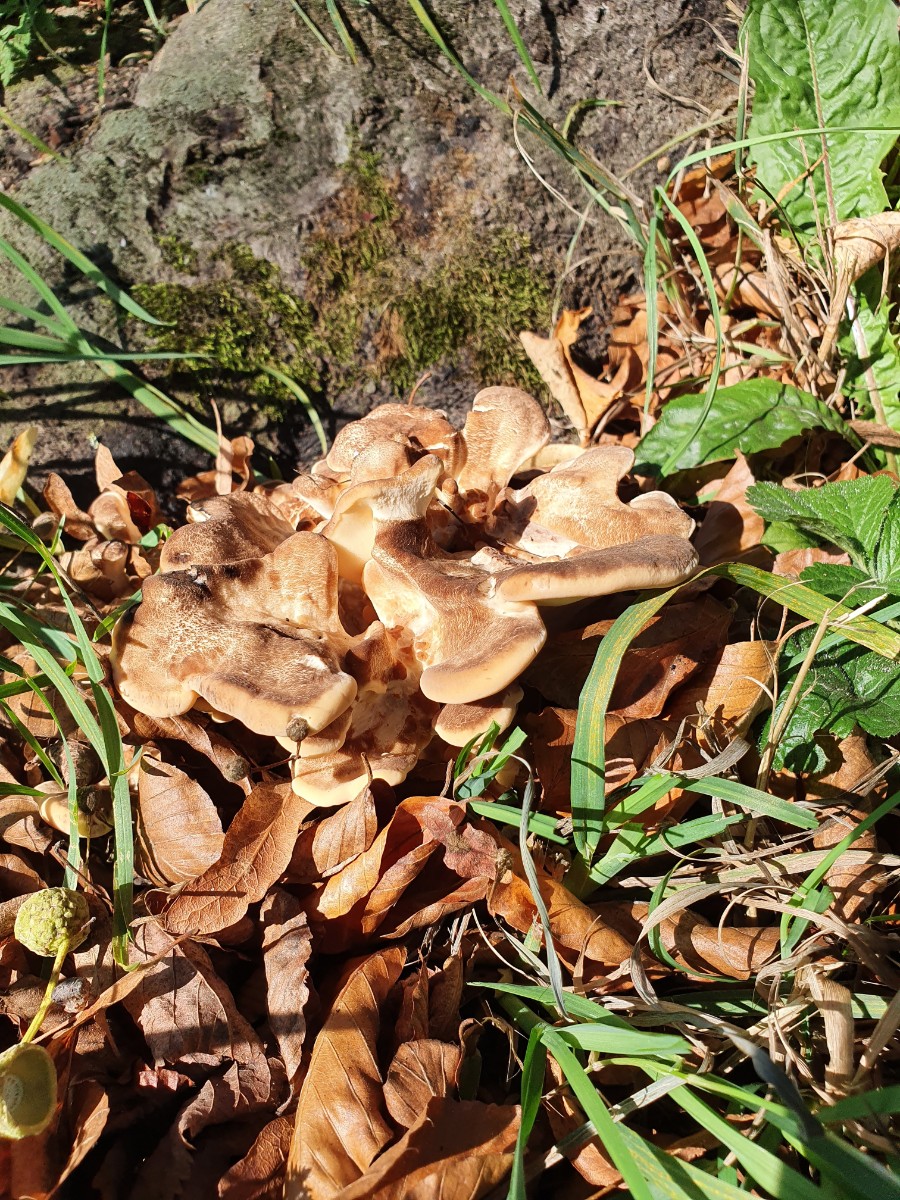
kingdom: Fungi
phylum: Basidiomycota
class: Agaricomycetes
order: Polyporales
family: Meripilaceae
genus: Meripilus
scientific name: Meripilus giganteus
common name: kæmpeporesvamp
